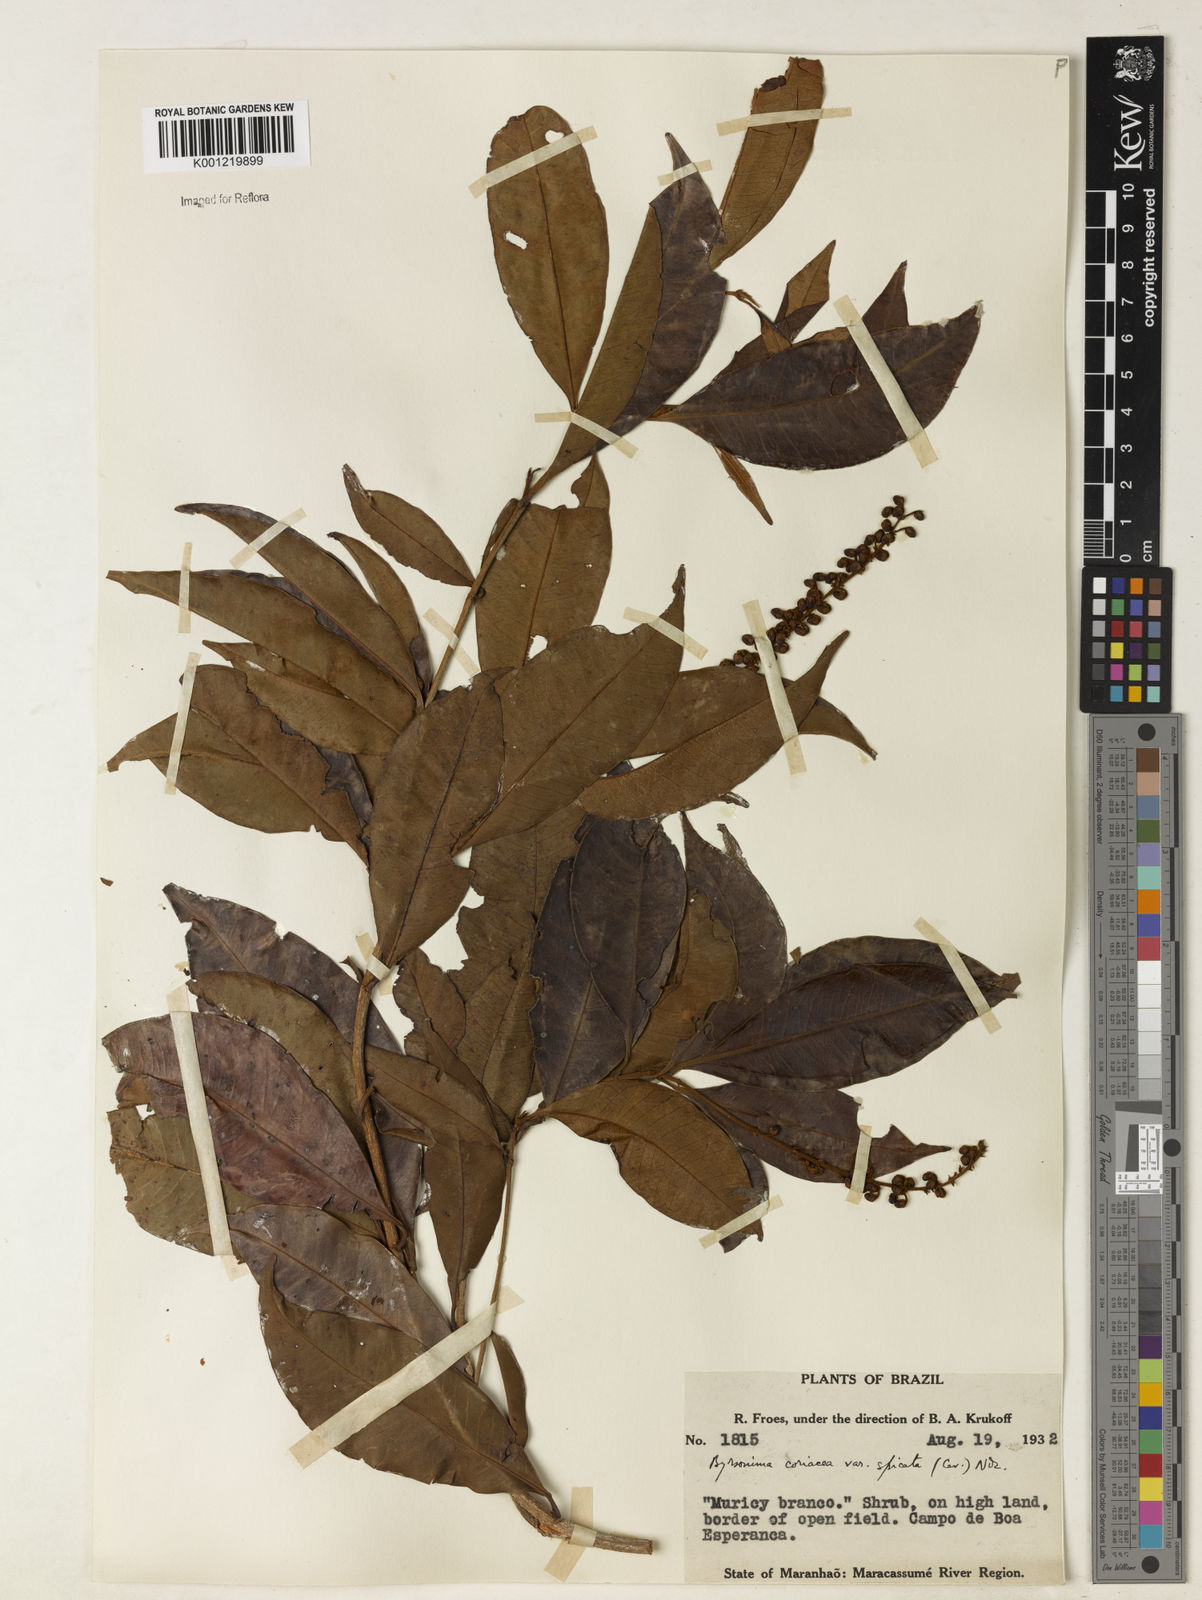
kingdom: Plantae
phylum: Tracheophyta
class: Magnoliopsida
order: Malpighiales
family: Malpighiaceae
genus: Byrsonima
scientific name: Byrsonima
